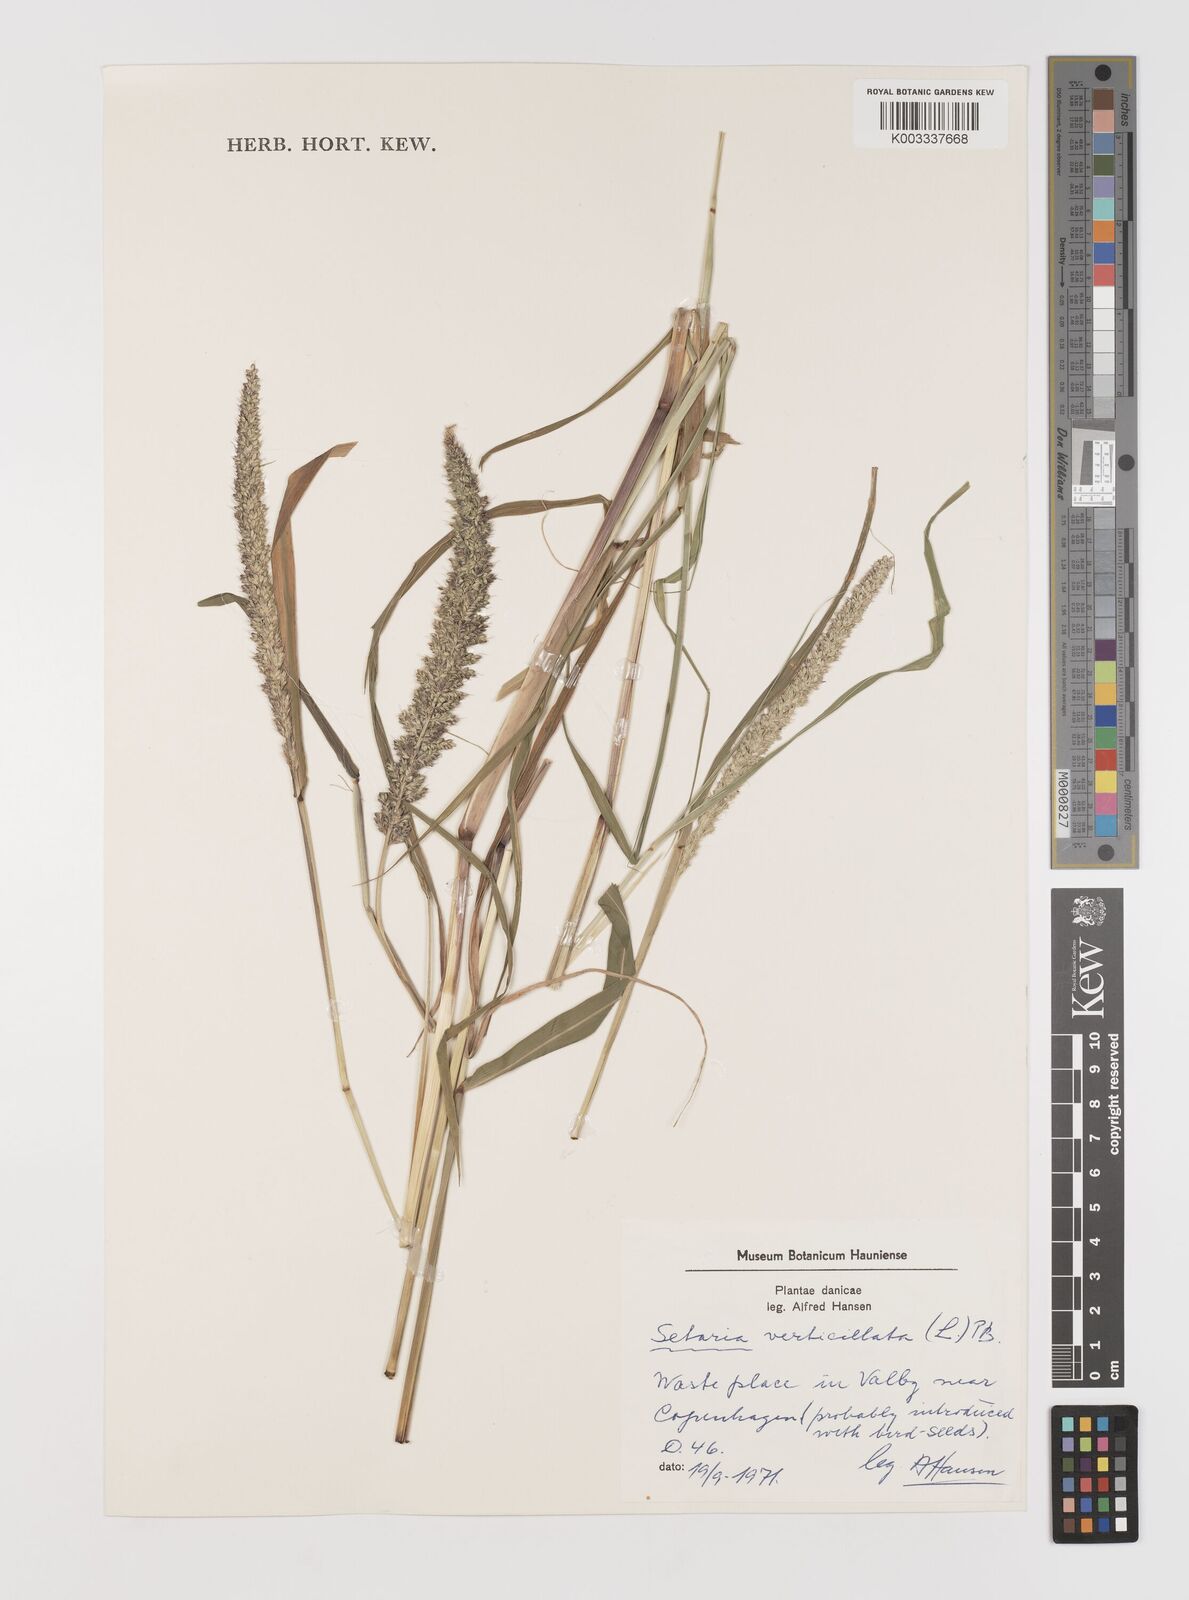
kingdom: Plantae
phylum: Tracheophyta
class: Liliopsida
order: Poales
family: Poaceae
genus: Setaria
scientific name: Setaria verticillata
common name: Hooked bristlegrass
